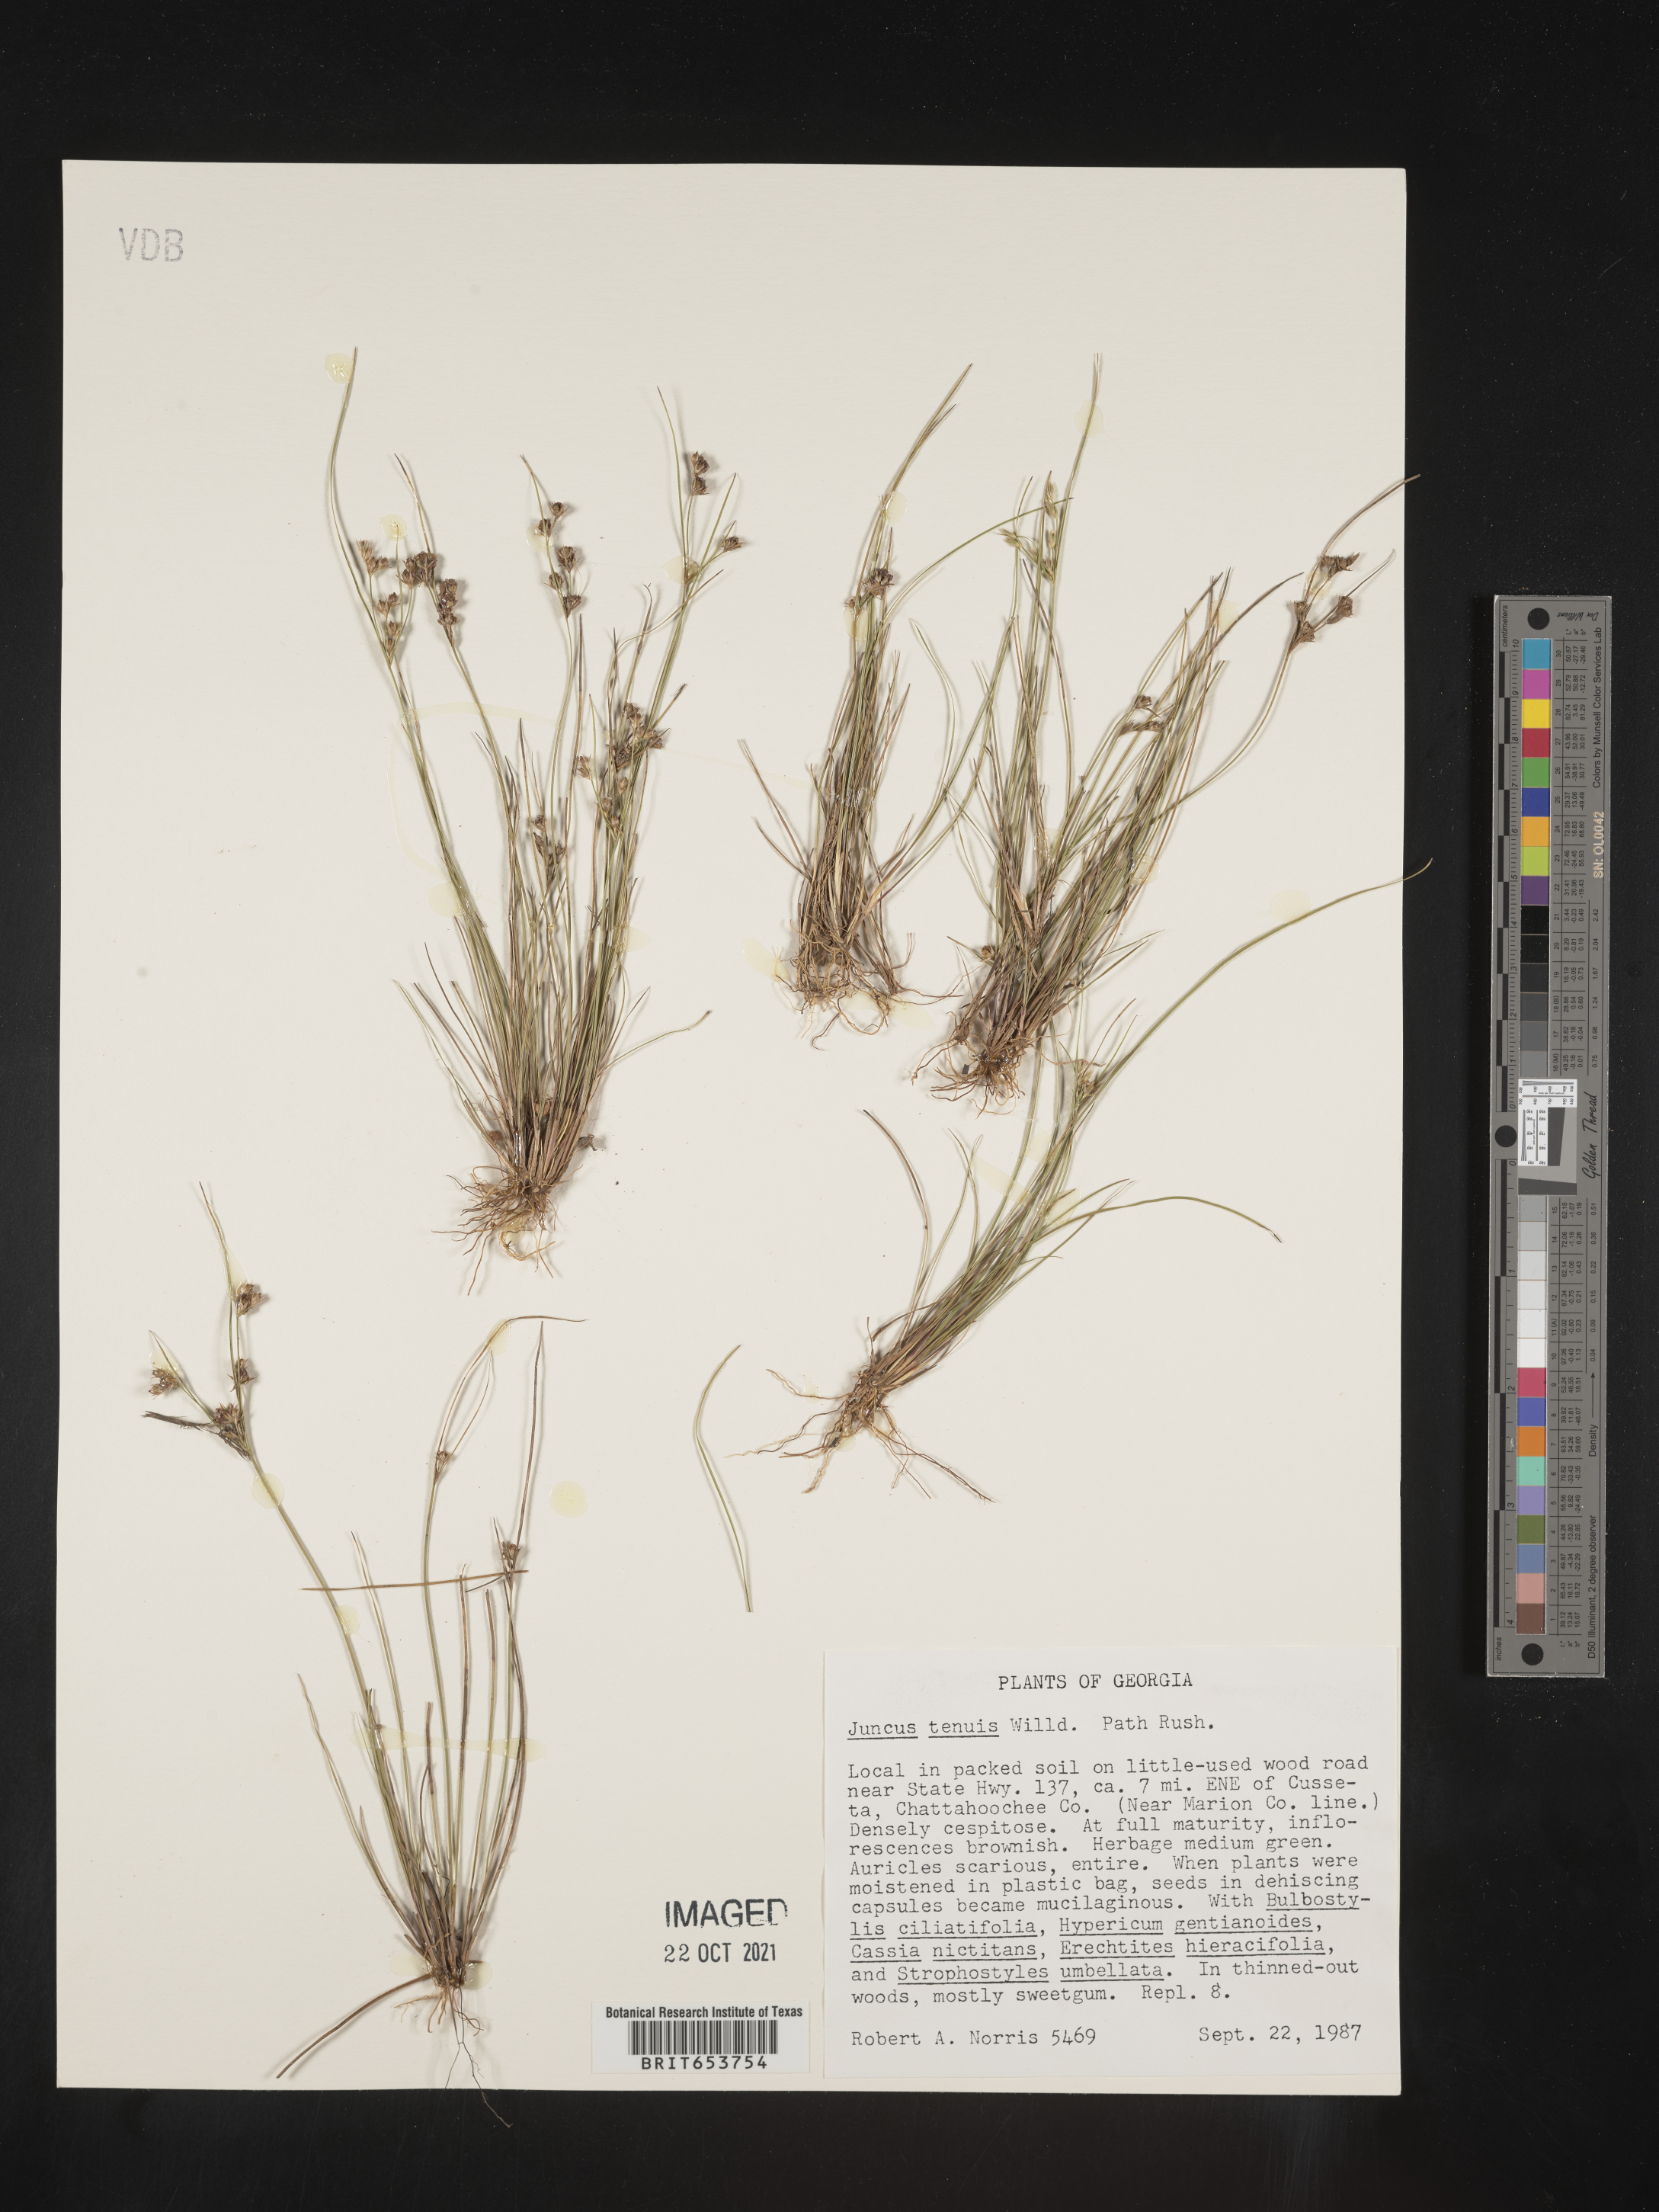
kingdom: Plantae
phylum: Tracheophyta
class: Liliopsida
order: Poales
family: Juncaceae
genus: Juncus
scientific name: Juncus tenuis
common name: Slender rush
